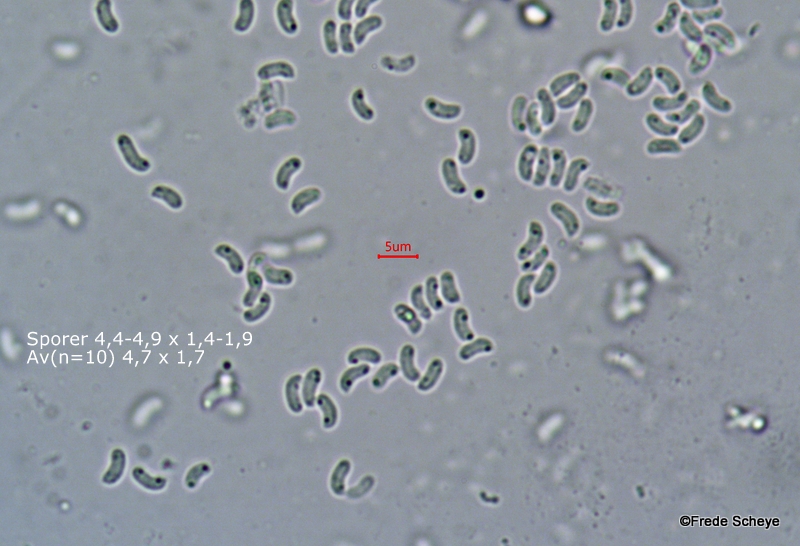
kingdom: Fungi
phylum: Basidiomycota
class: Agaricomycetes
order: Polyporales
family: Ischnodermataceae
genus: Ischnoderma
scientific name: Ischnoderma resinosum
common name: løv-tjæreporesvamp
